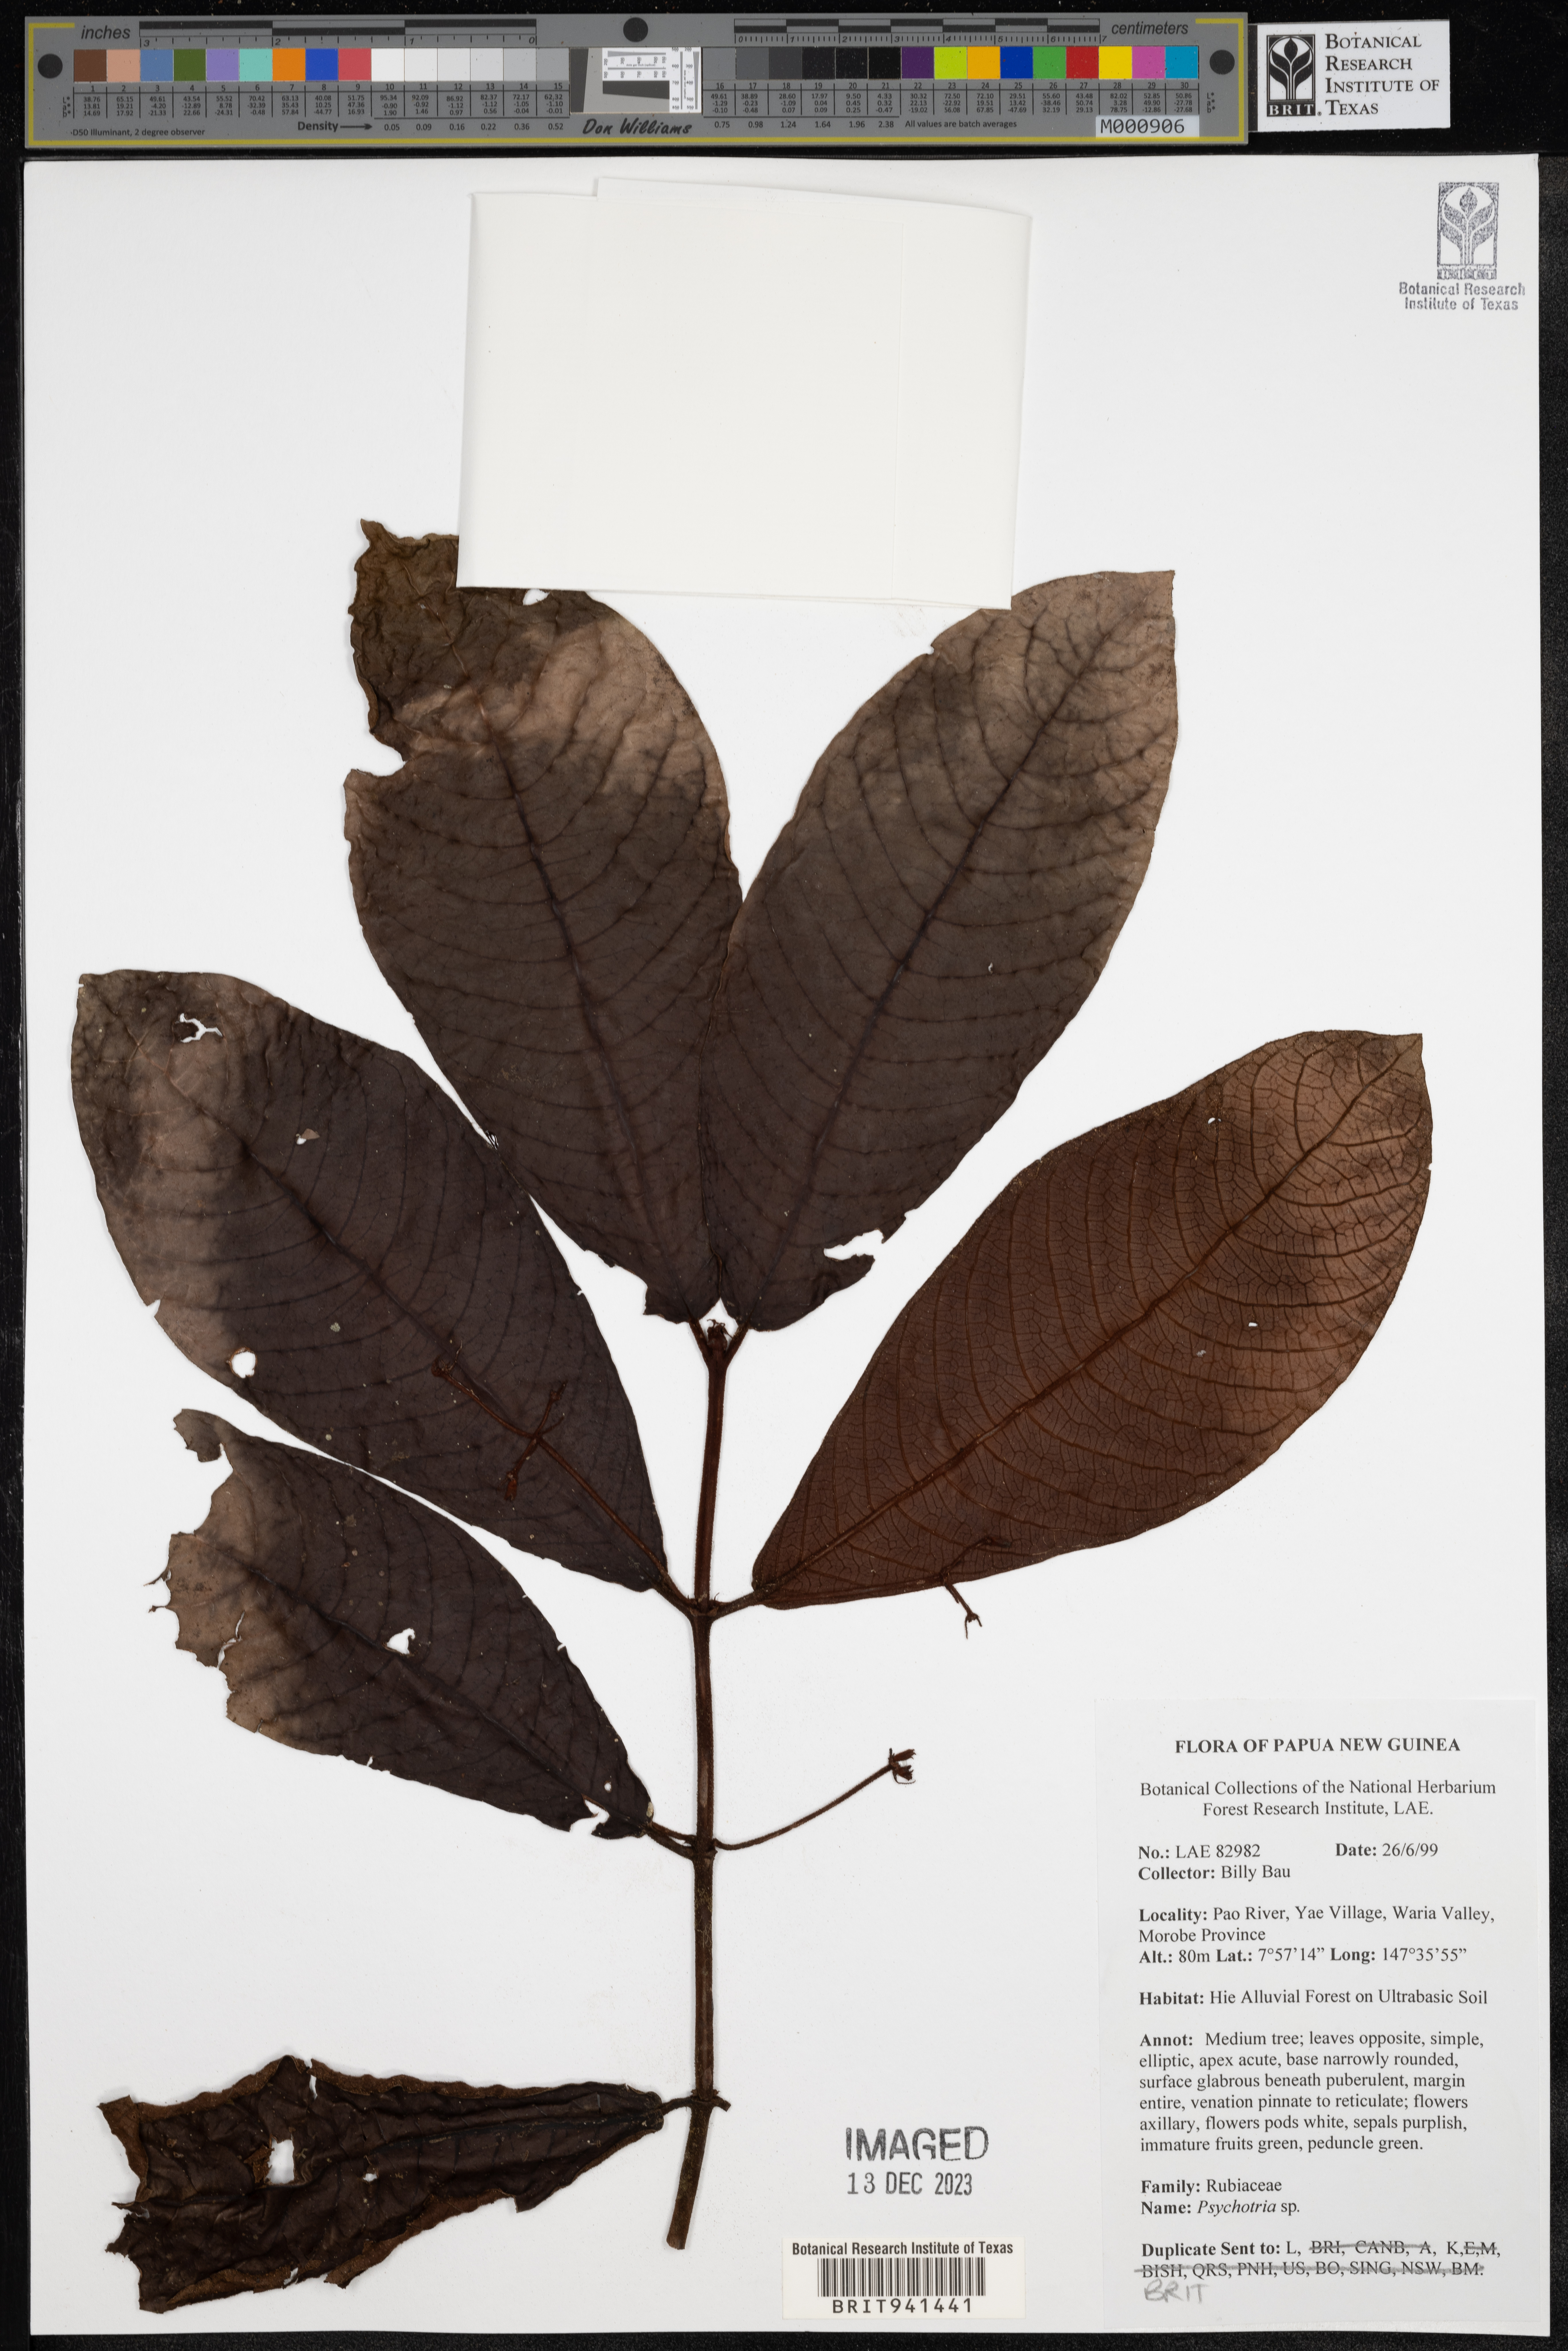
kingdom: Plantae
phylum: Tracheophyta
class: Magnoliopsida
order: Gentianales
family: Rubiaceae
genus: Psychotria
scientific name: Psychotria
